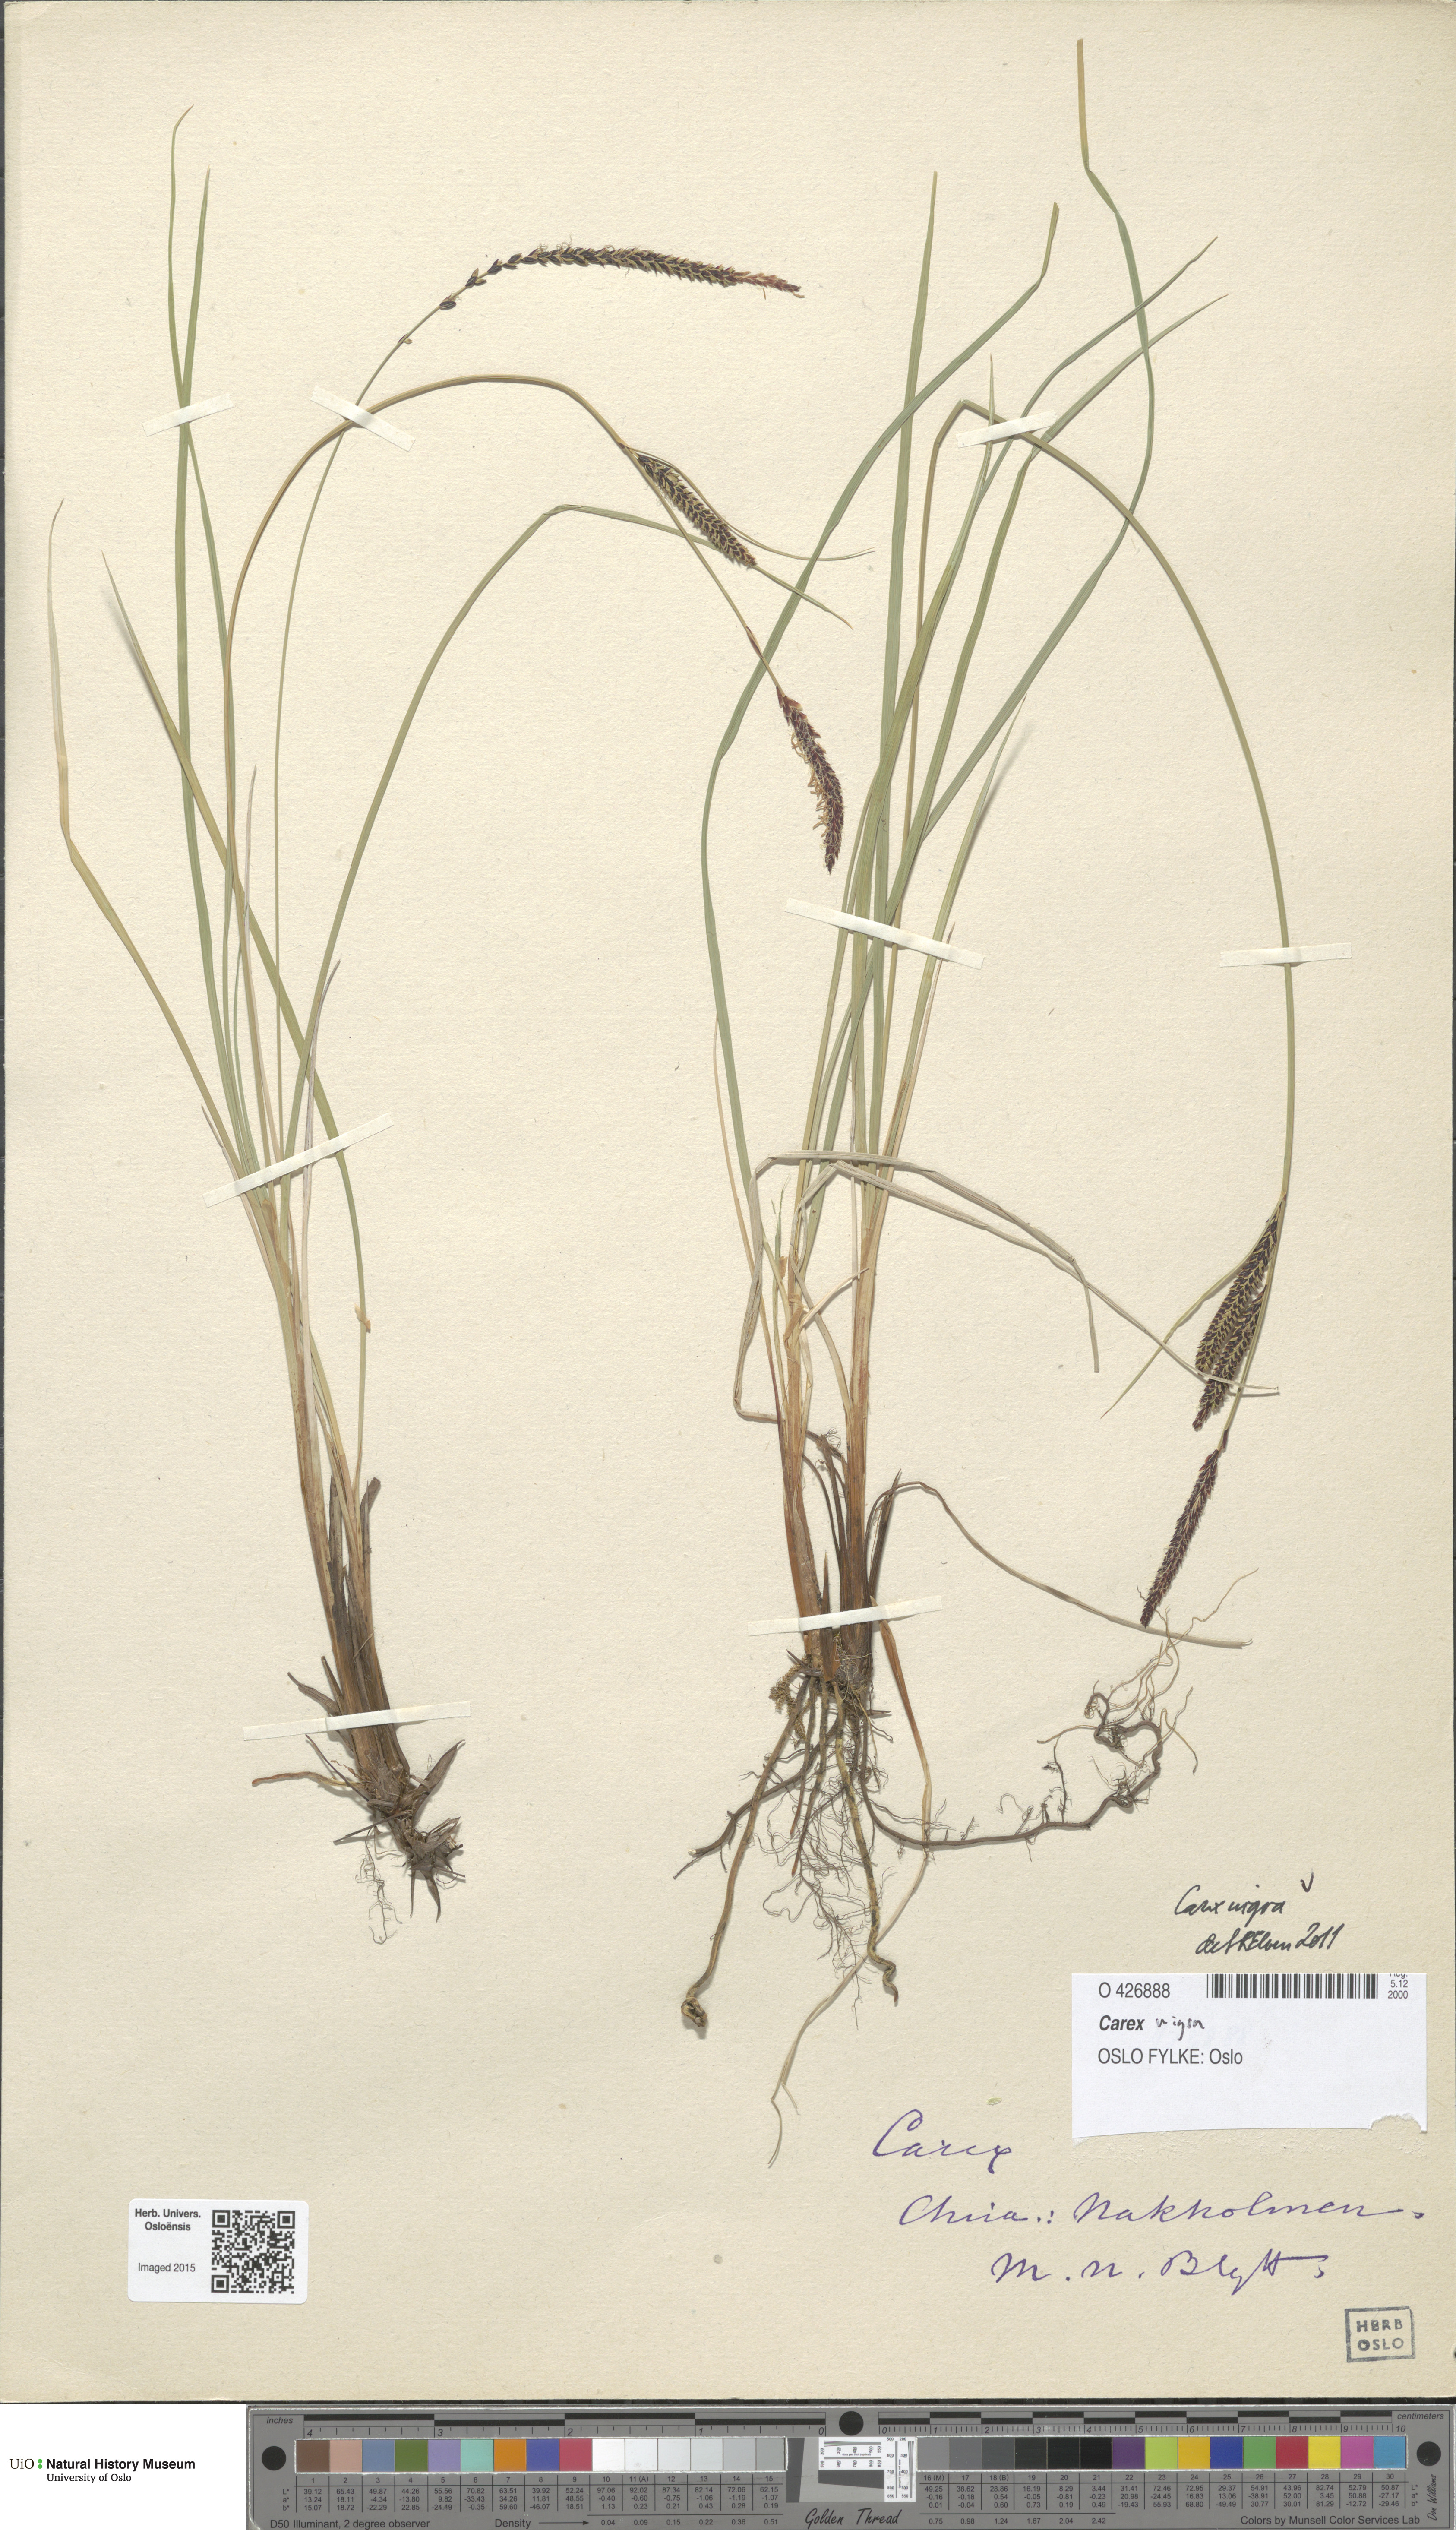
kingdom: Plantae
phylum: Tracheophyta
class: Liliopsida
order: Poales
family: Cyperaceae
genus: Carex
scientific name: Carex nigra
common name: Common sedge
